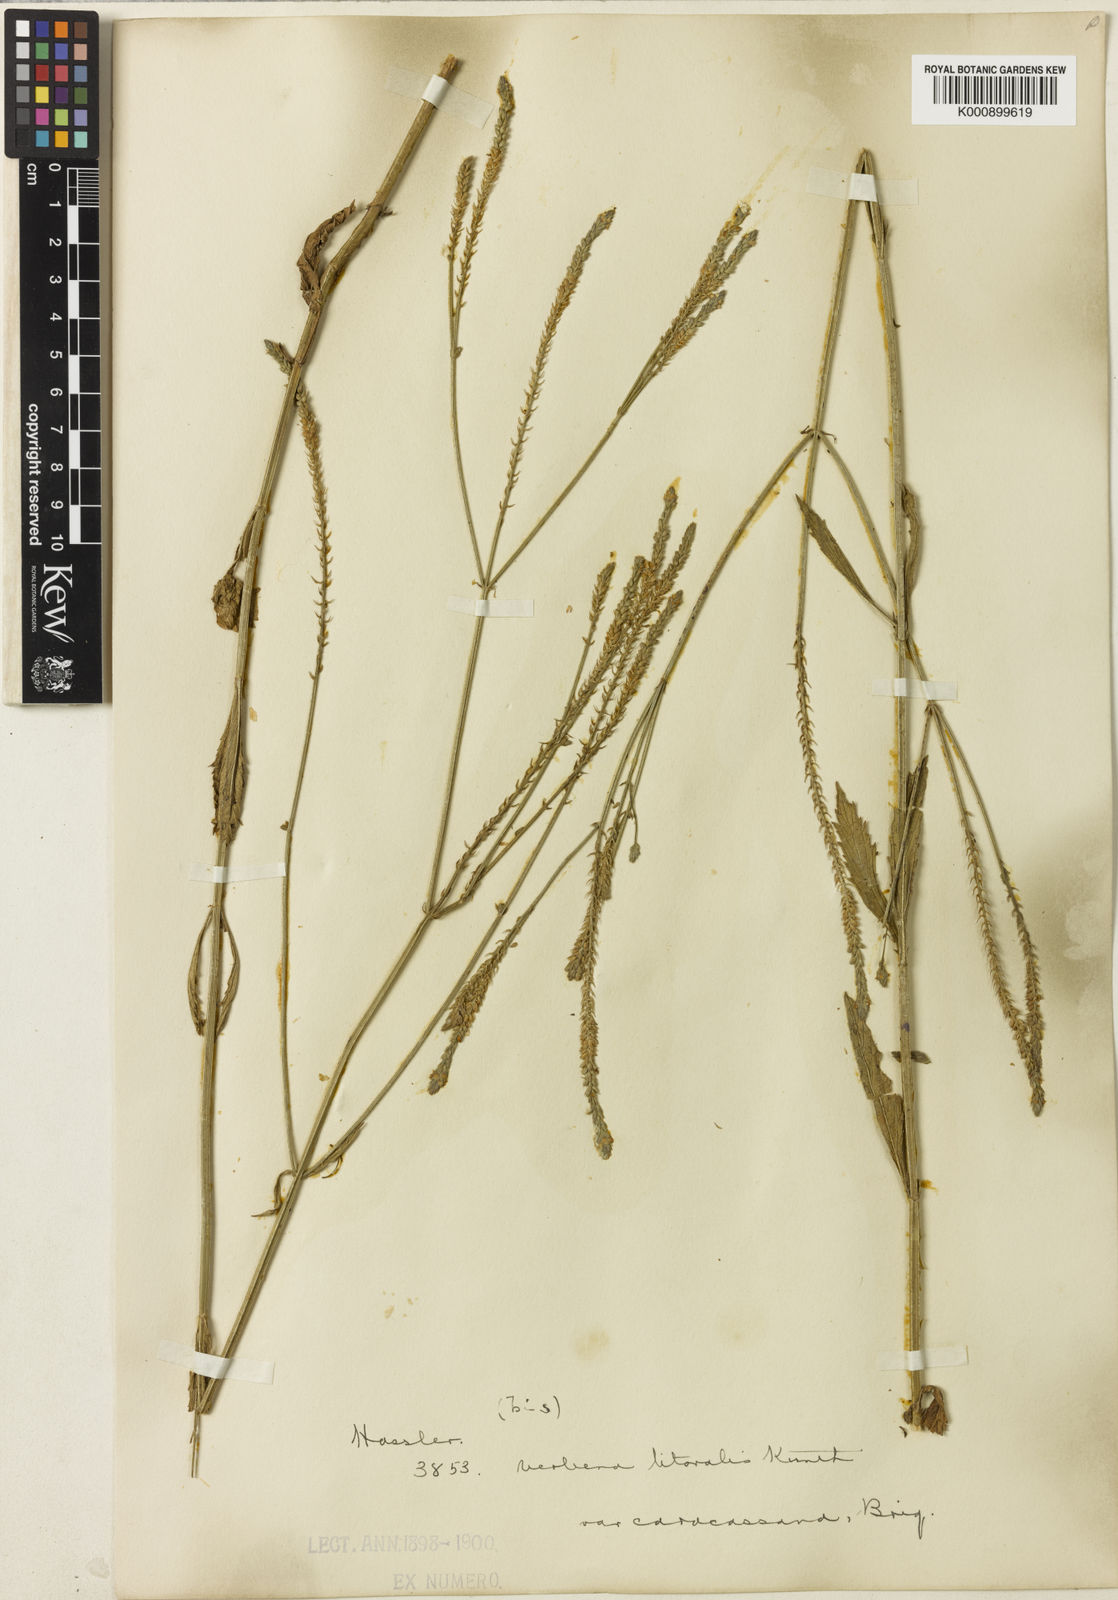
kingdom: Plantae
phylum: Tracheophyta
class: Magnoliopsida
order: Lamiales
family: Verbenaceae
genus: Verbena
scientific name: Verbena brasiliensis
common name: Brazilian vervain
